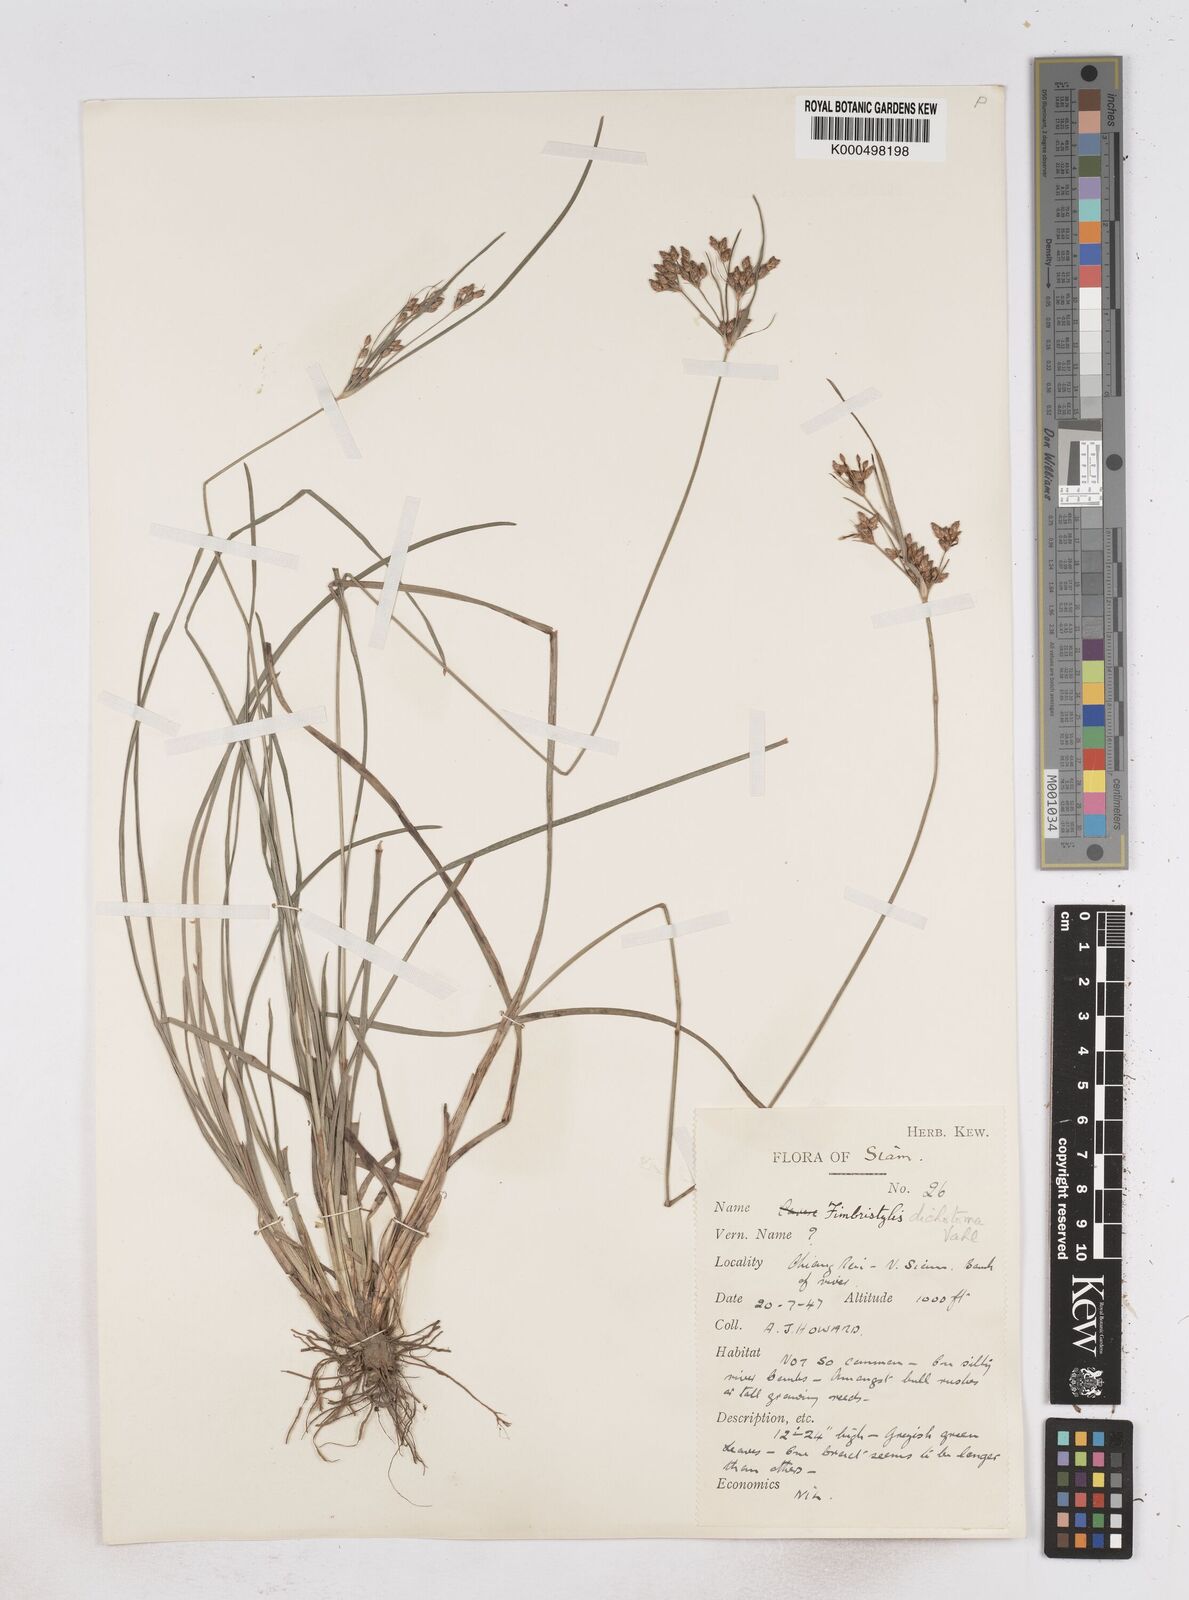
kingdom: Plantae
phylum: Tracheophyta
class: Liliopsida
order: Poales
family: Cyperaceae
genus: Fimbristylis
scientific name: Fimbristylis dichotoma
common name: Forked fimbry
